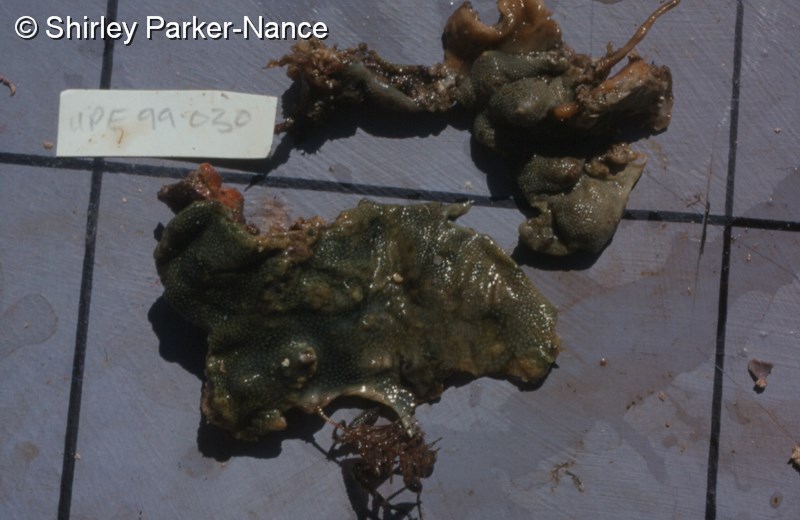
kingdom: Animalia
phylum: Chordata
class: Ascidiacea
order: Aplousobranchia
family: Didemnidae
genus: Didemnum
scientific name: Didemnum
